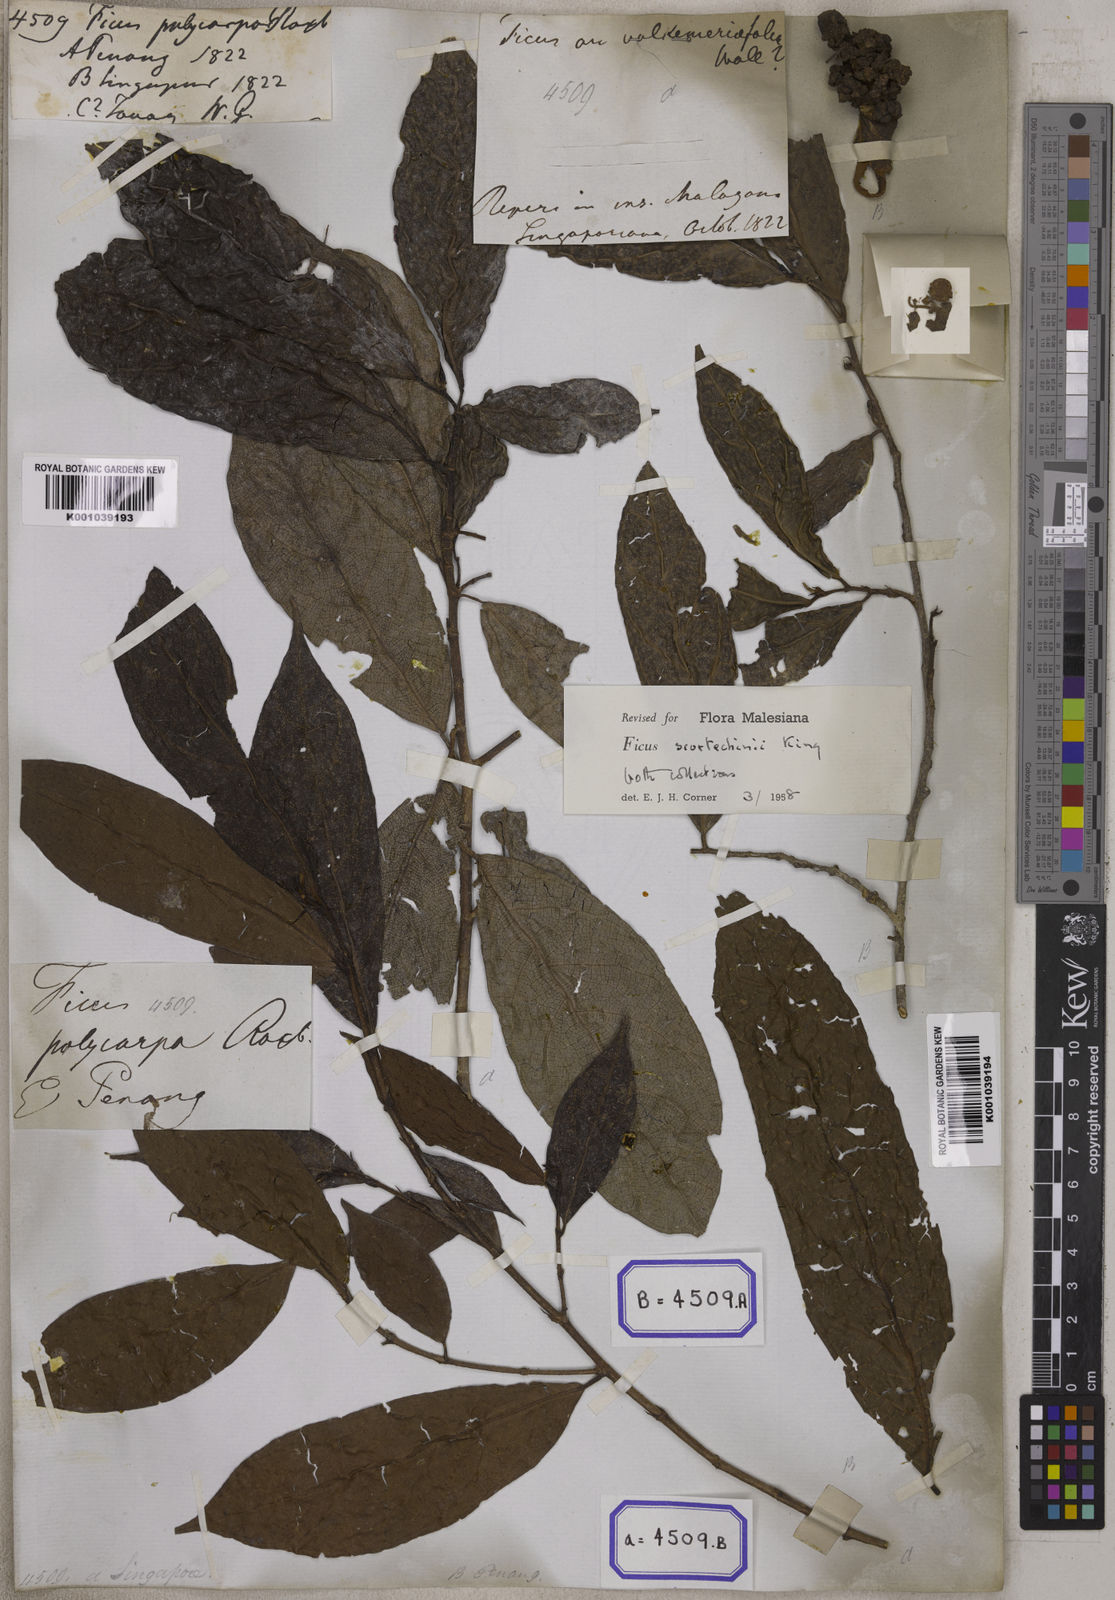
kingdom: Plantae
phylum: Tracheophyta
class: Magnoliopsida
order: Rosales
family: Moraceae
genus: Ficus
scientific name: Ficus copiosa
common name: Plentiful fig
